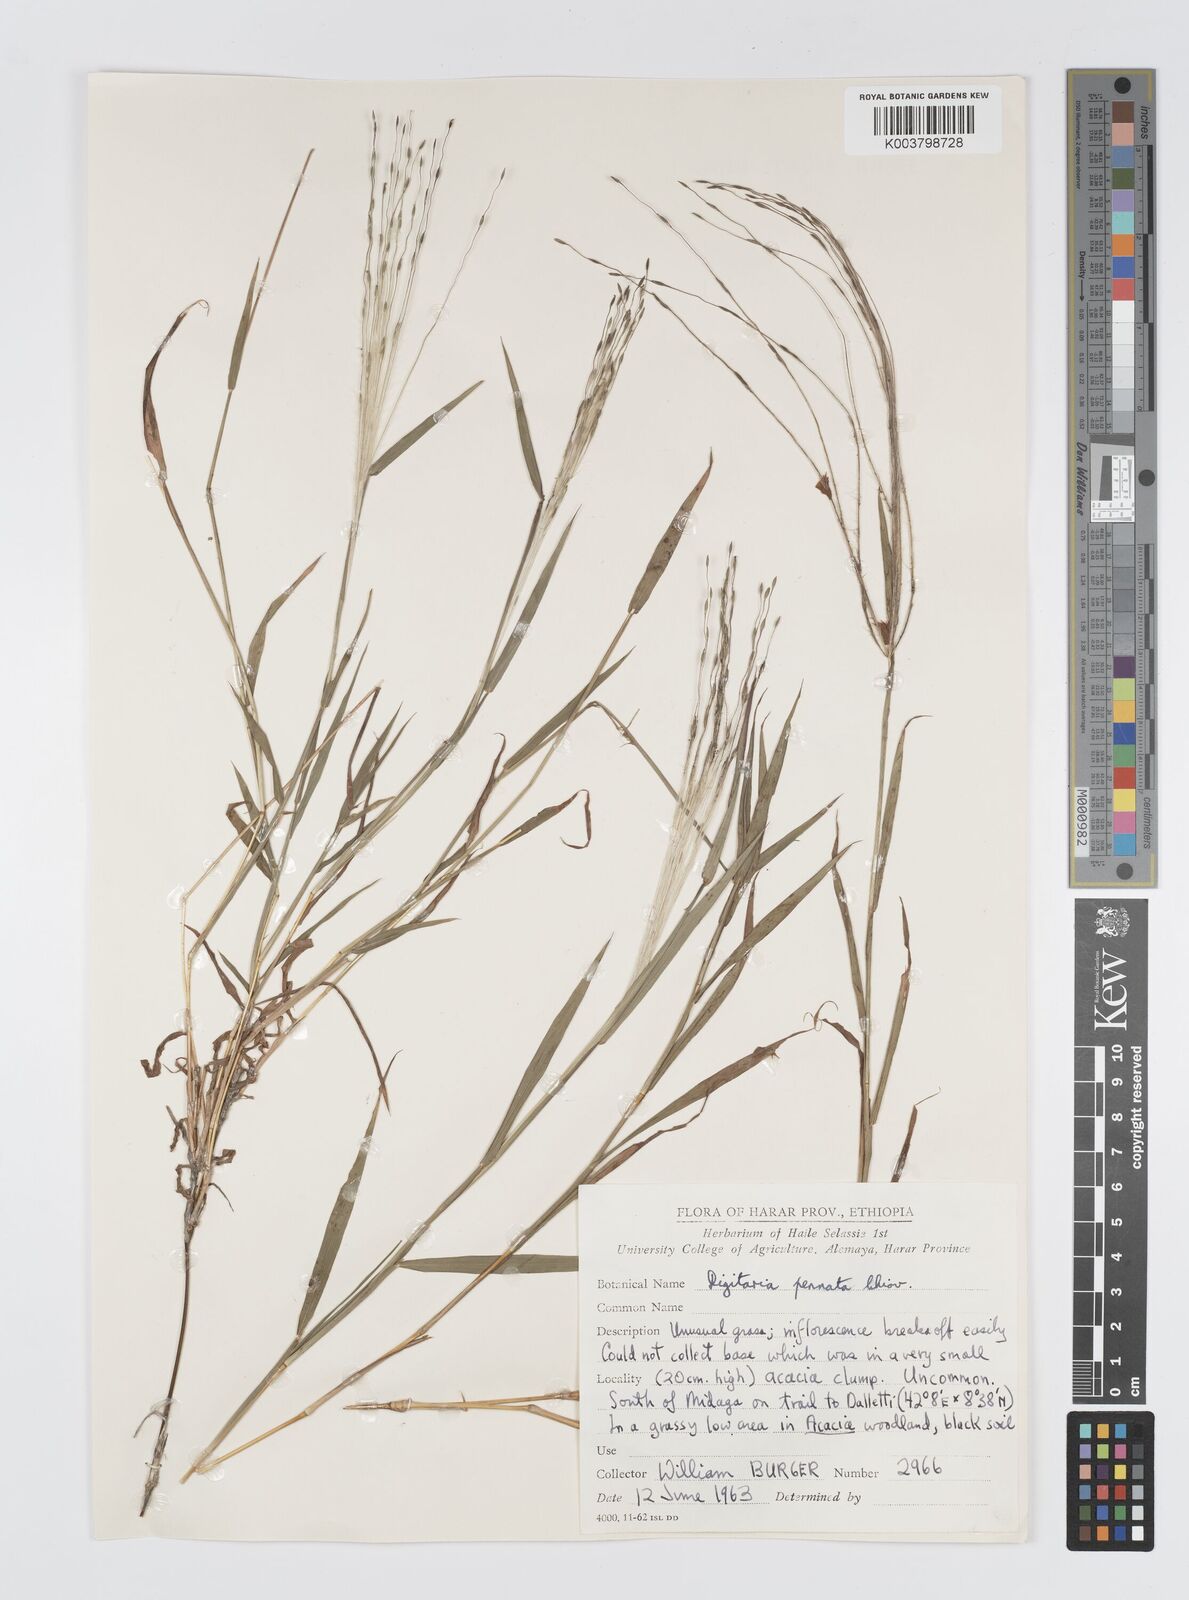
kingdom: Plantae
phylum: Tracheophyta
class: Liliopsida
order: Poales
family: Poaceae
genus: Digitaria
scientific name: Digitaria pennata
